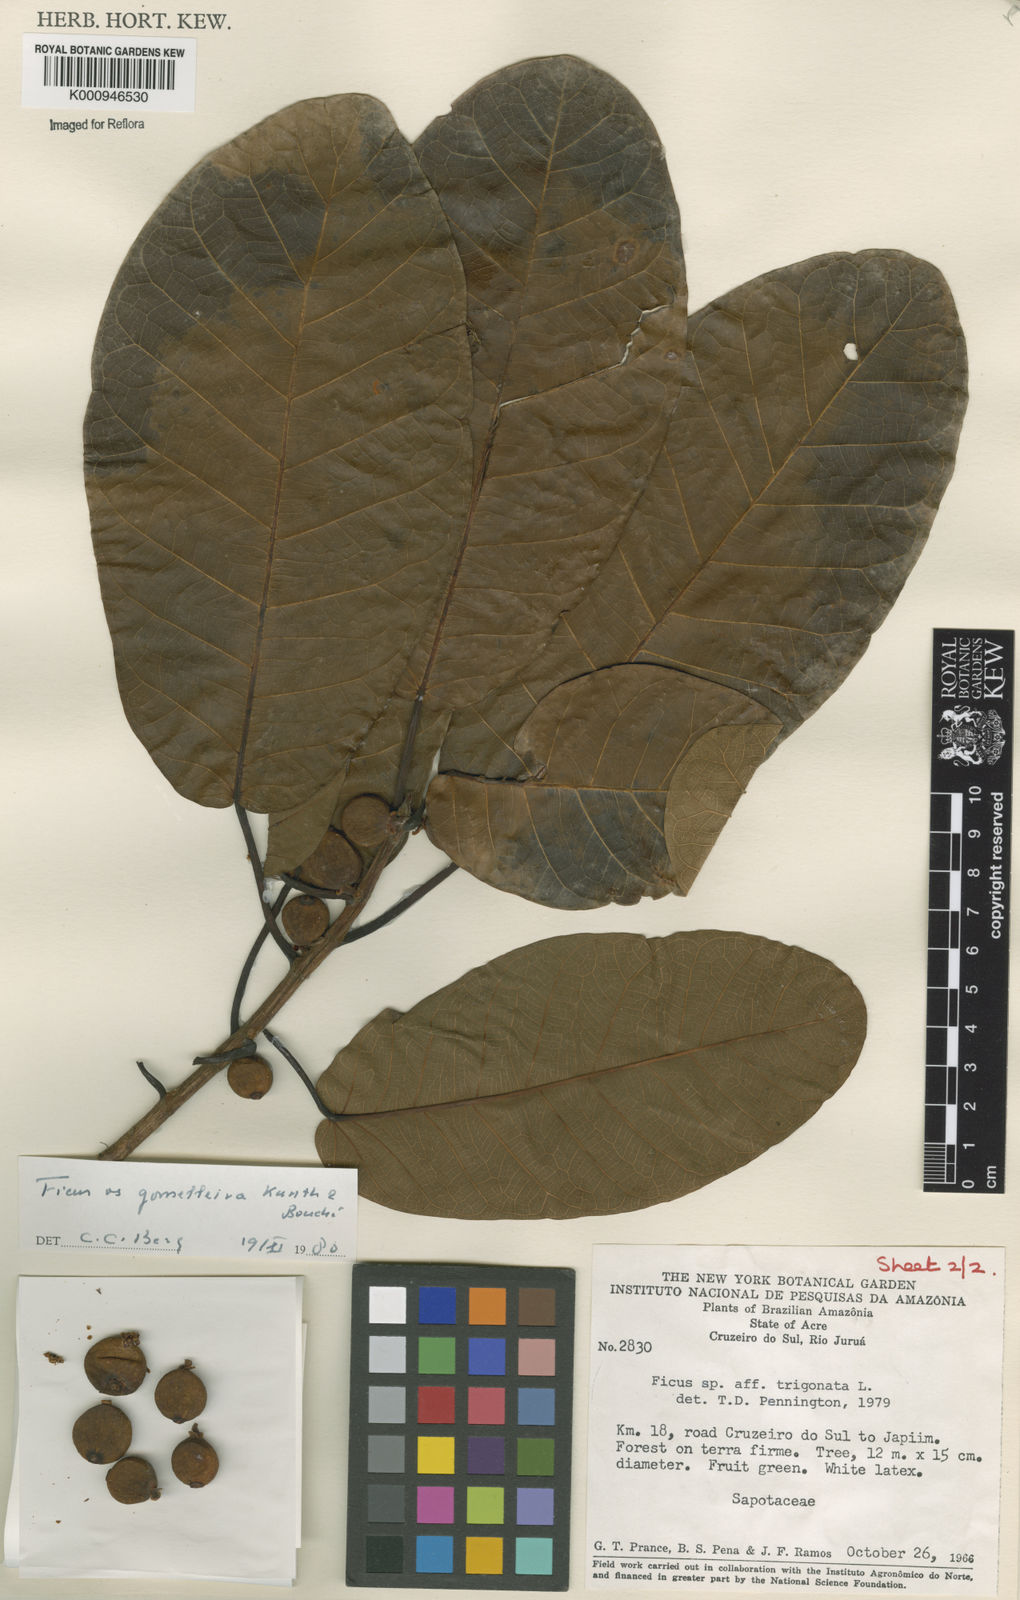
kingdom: Plantae
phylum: Tracheophyta
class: Magnoliopsida
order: Rosales
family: Moraceae
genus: Ficus
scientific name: Ficus gomelleira
